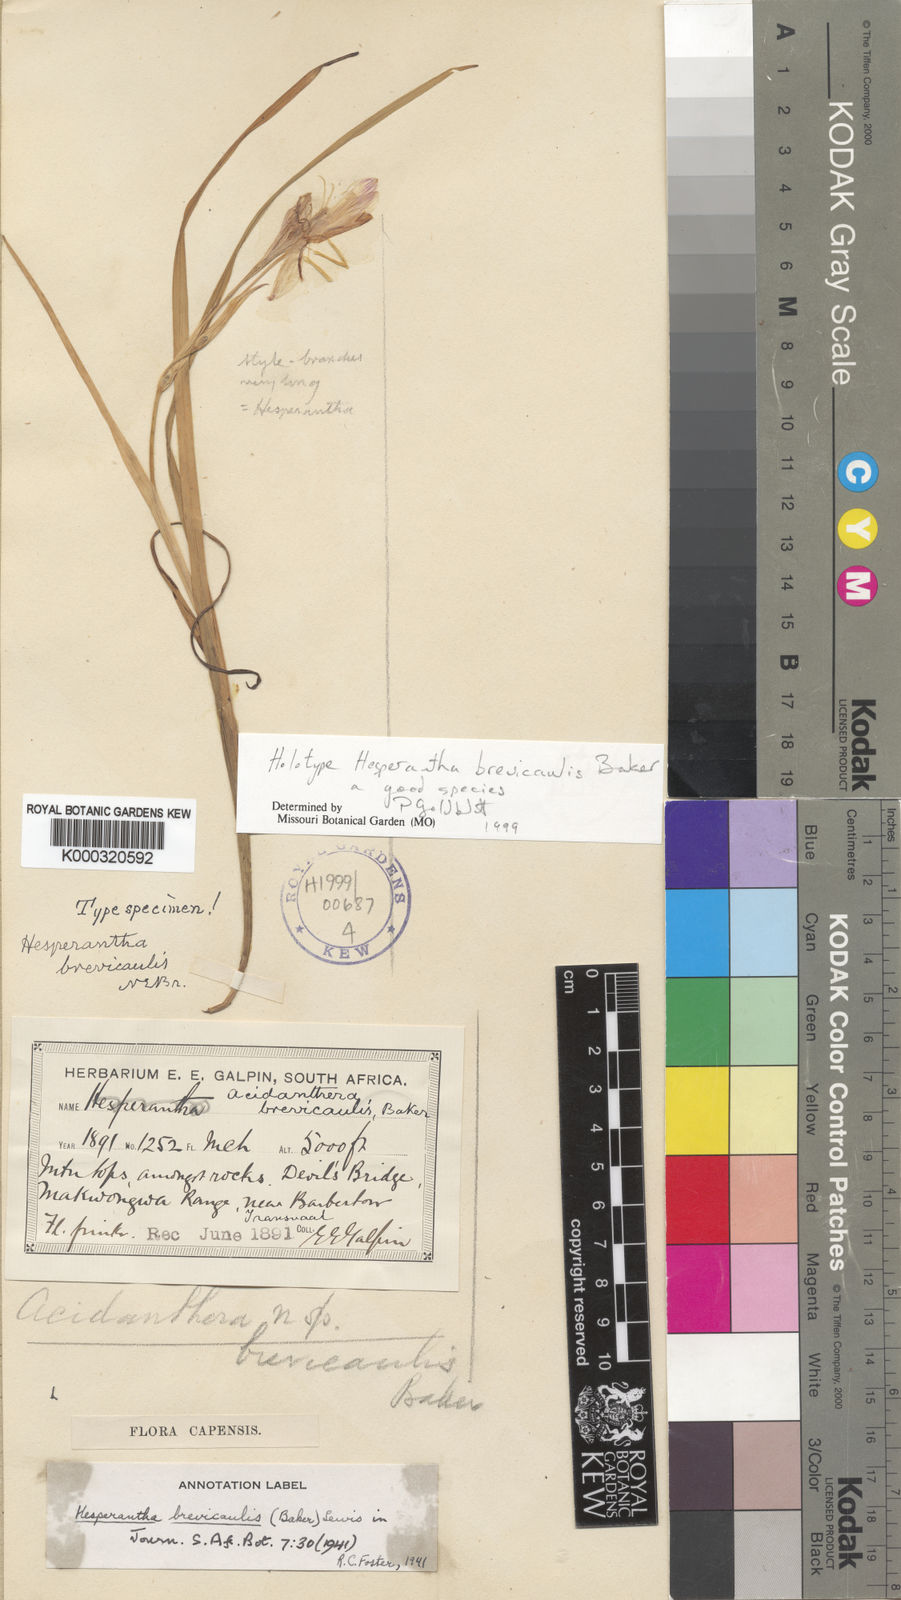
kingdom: Plantae
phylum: Tracheophyta
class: Liliopsida
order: Asparagales
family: Iridaceae
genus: Hesperantha
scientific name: Hesperantha brevicaulis
